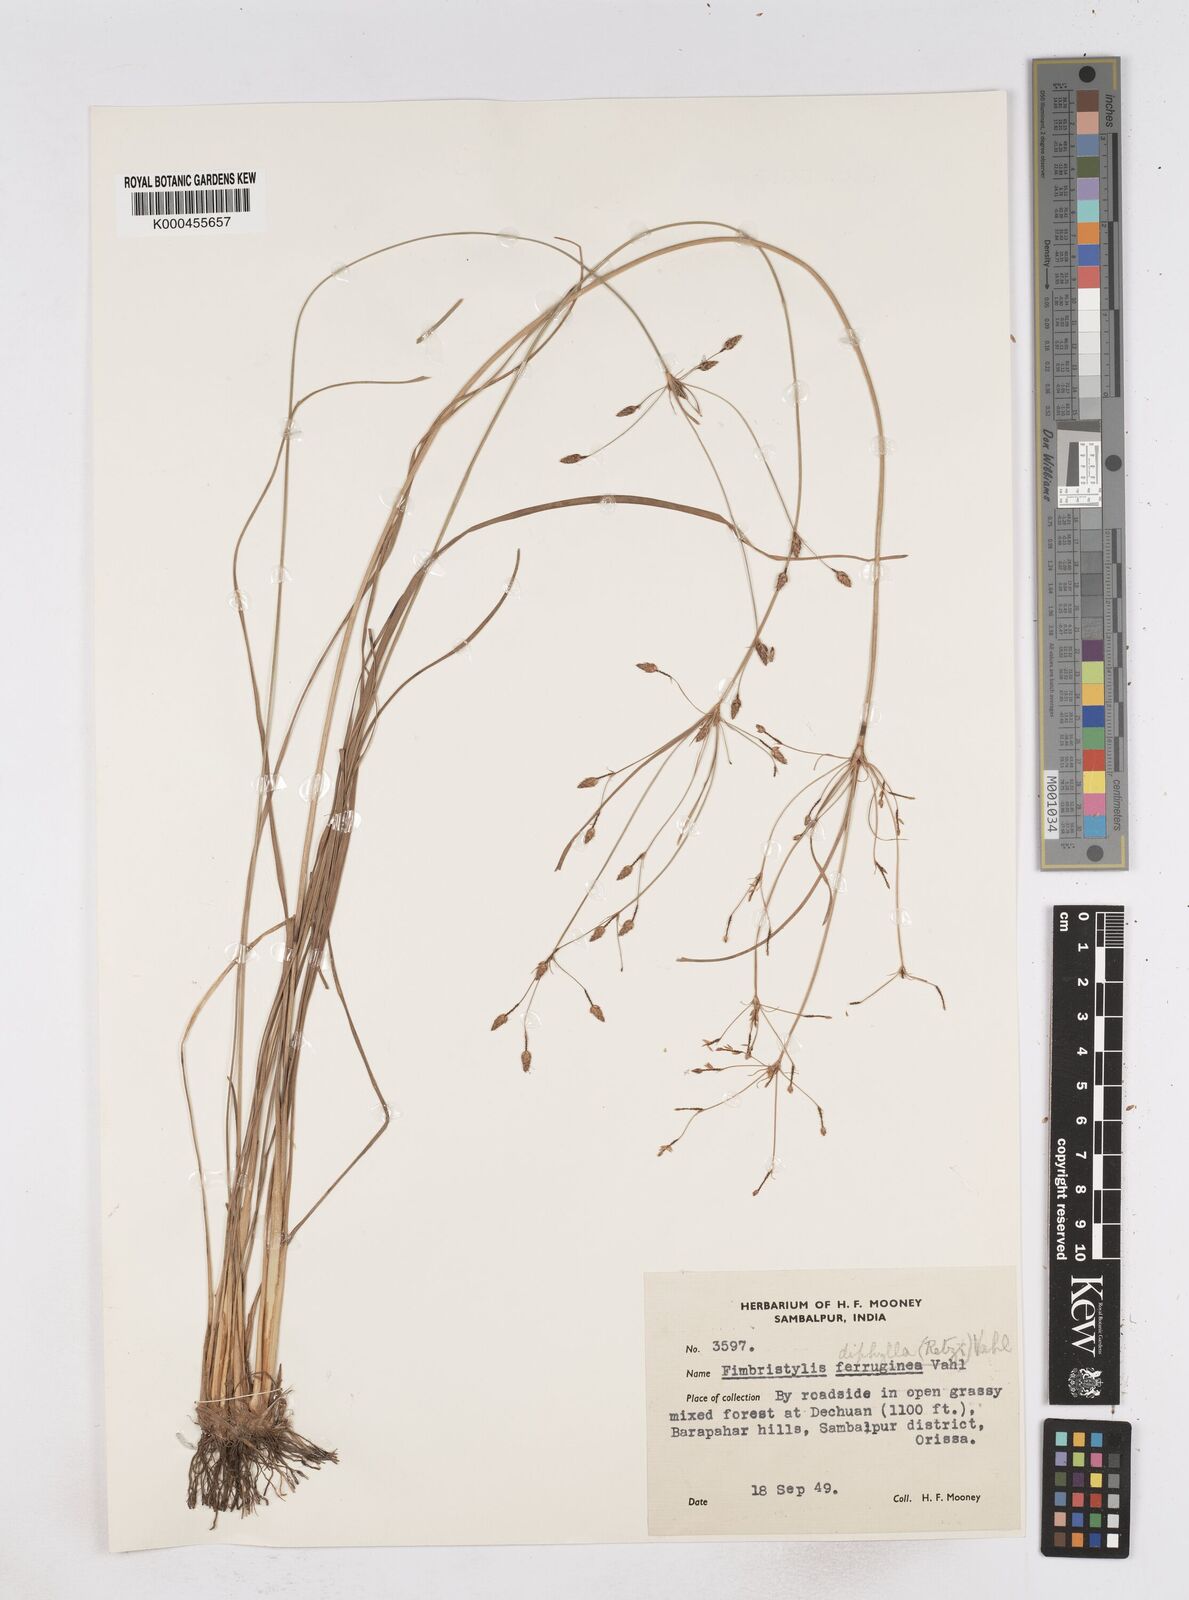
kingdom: Plantae
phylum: Tracheophyta
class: Liliopsida
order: Poales
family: Cyperaceae
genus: Fimbristylis
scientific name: Fimbristylis dichotoma
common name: Forked fimbry
